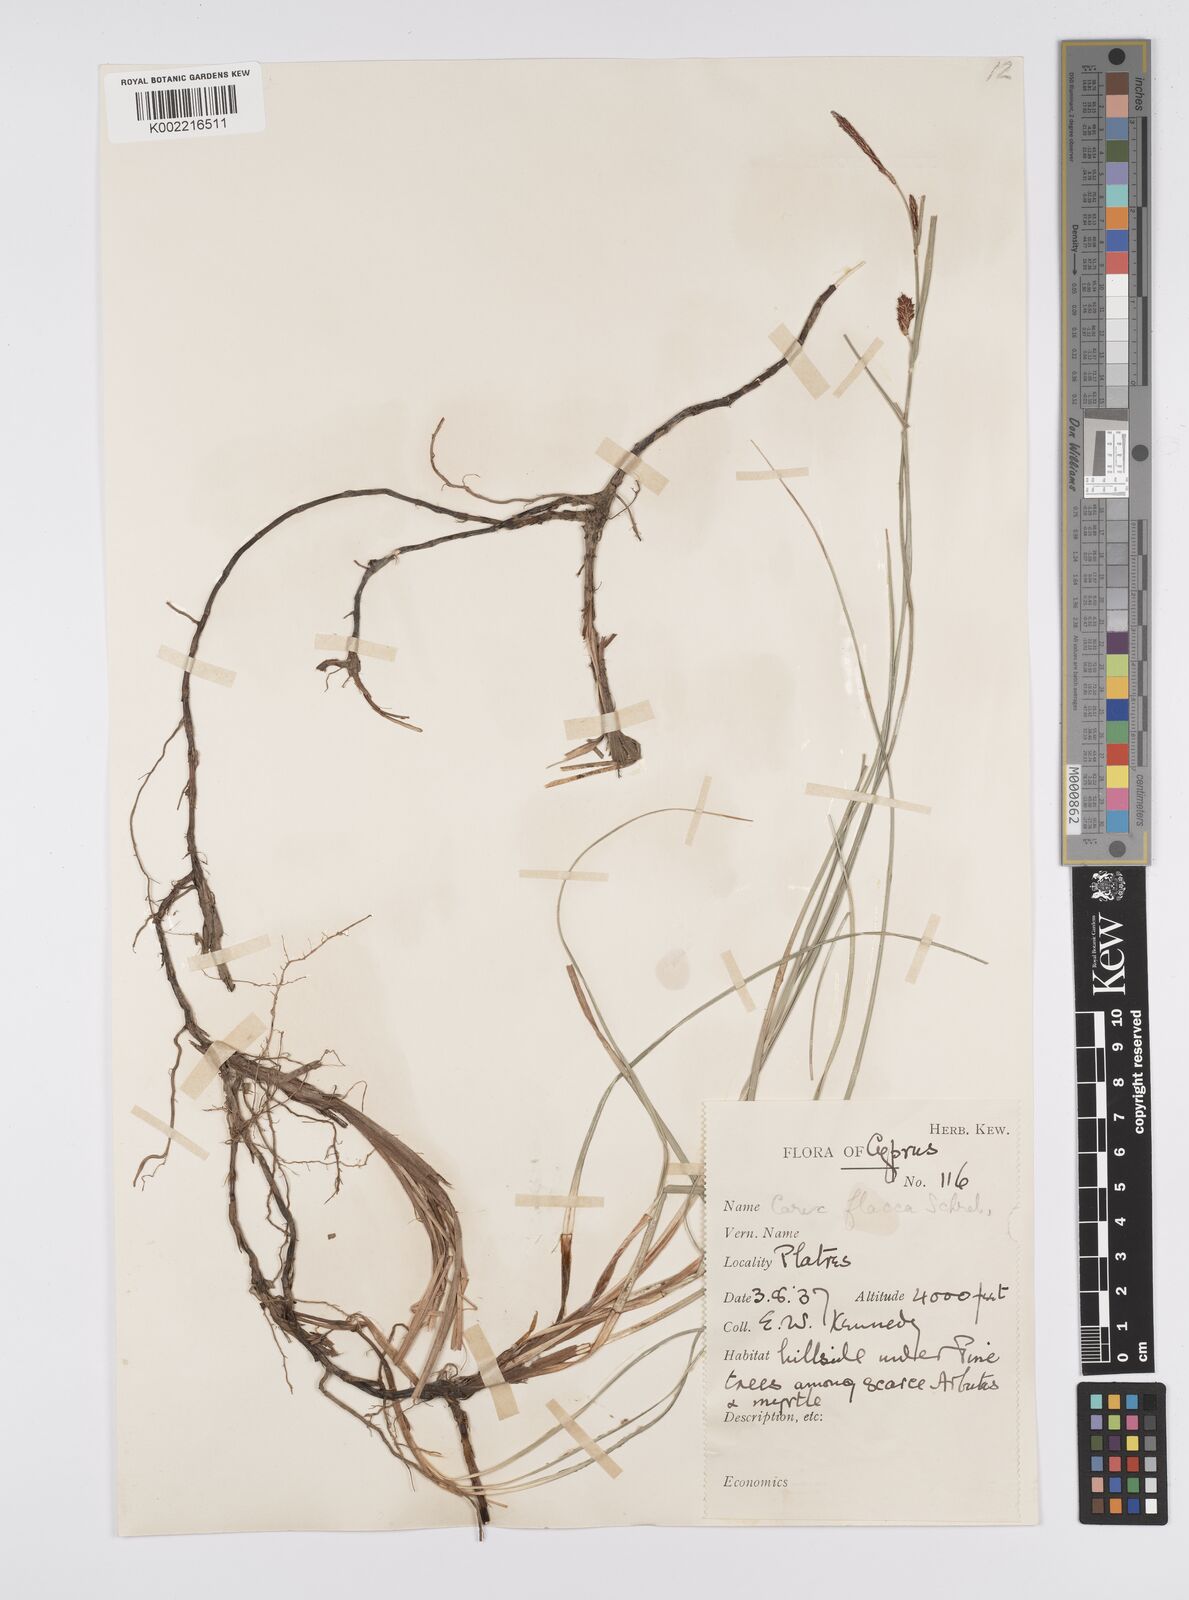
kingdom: Plantae
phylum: Tracheophyta
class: Liliopsida
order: Poales
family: Cyperaceae
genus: Carex
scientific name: Carex flacca
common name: Glaucous sedge
